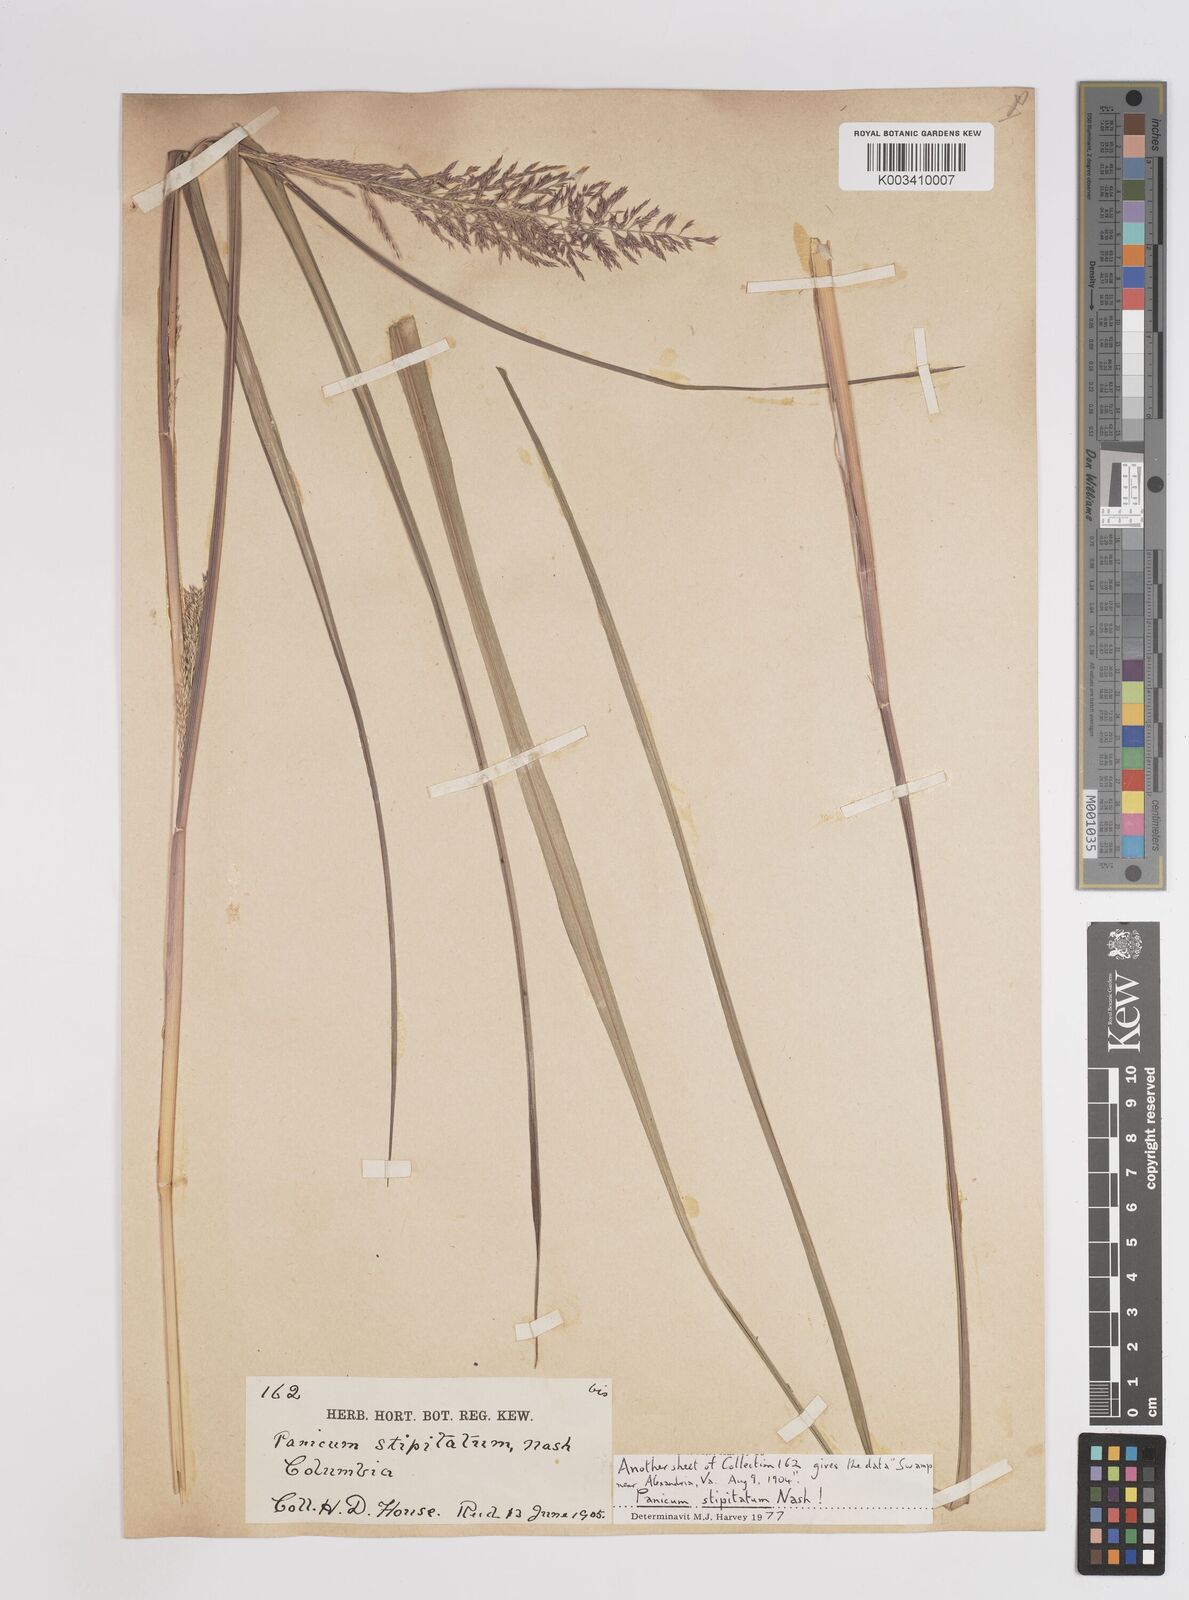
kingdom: Plantae
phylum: Tracheophyta
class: Liliopsida
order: Poales
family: Poaceae
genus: Coleataenia
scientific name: Coleataenia pulchra
